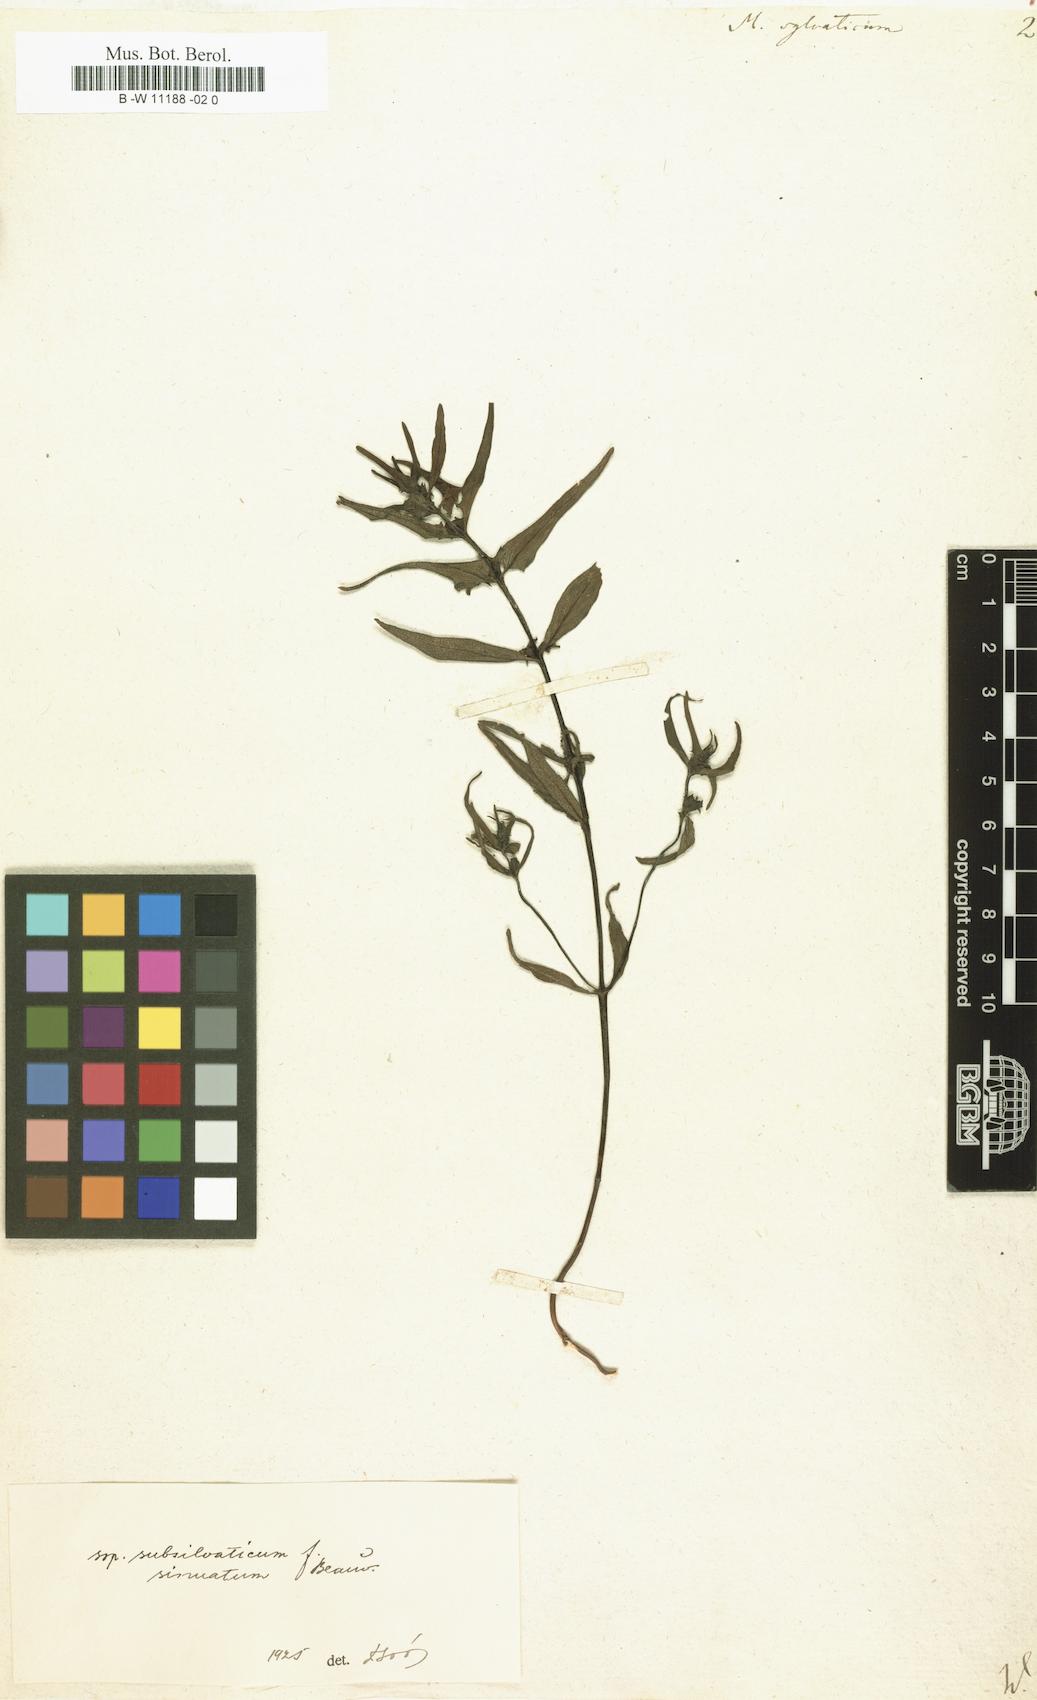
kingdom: Plantae
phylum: Tracheophyta
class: Magnoliopsida
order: Lamiales
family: Orobanchaceae
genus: Melampyrum
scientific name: Melampyrum sylvaticum
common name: Small cow-wheat
